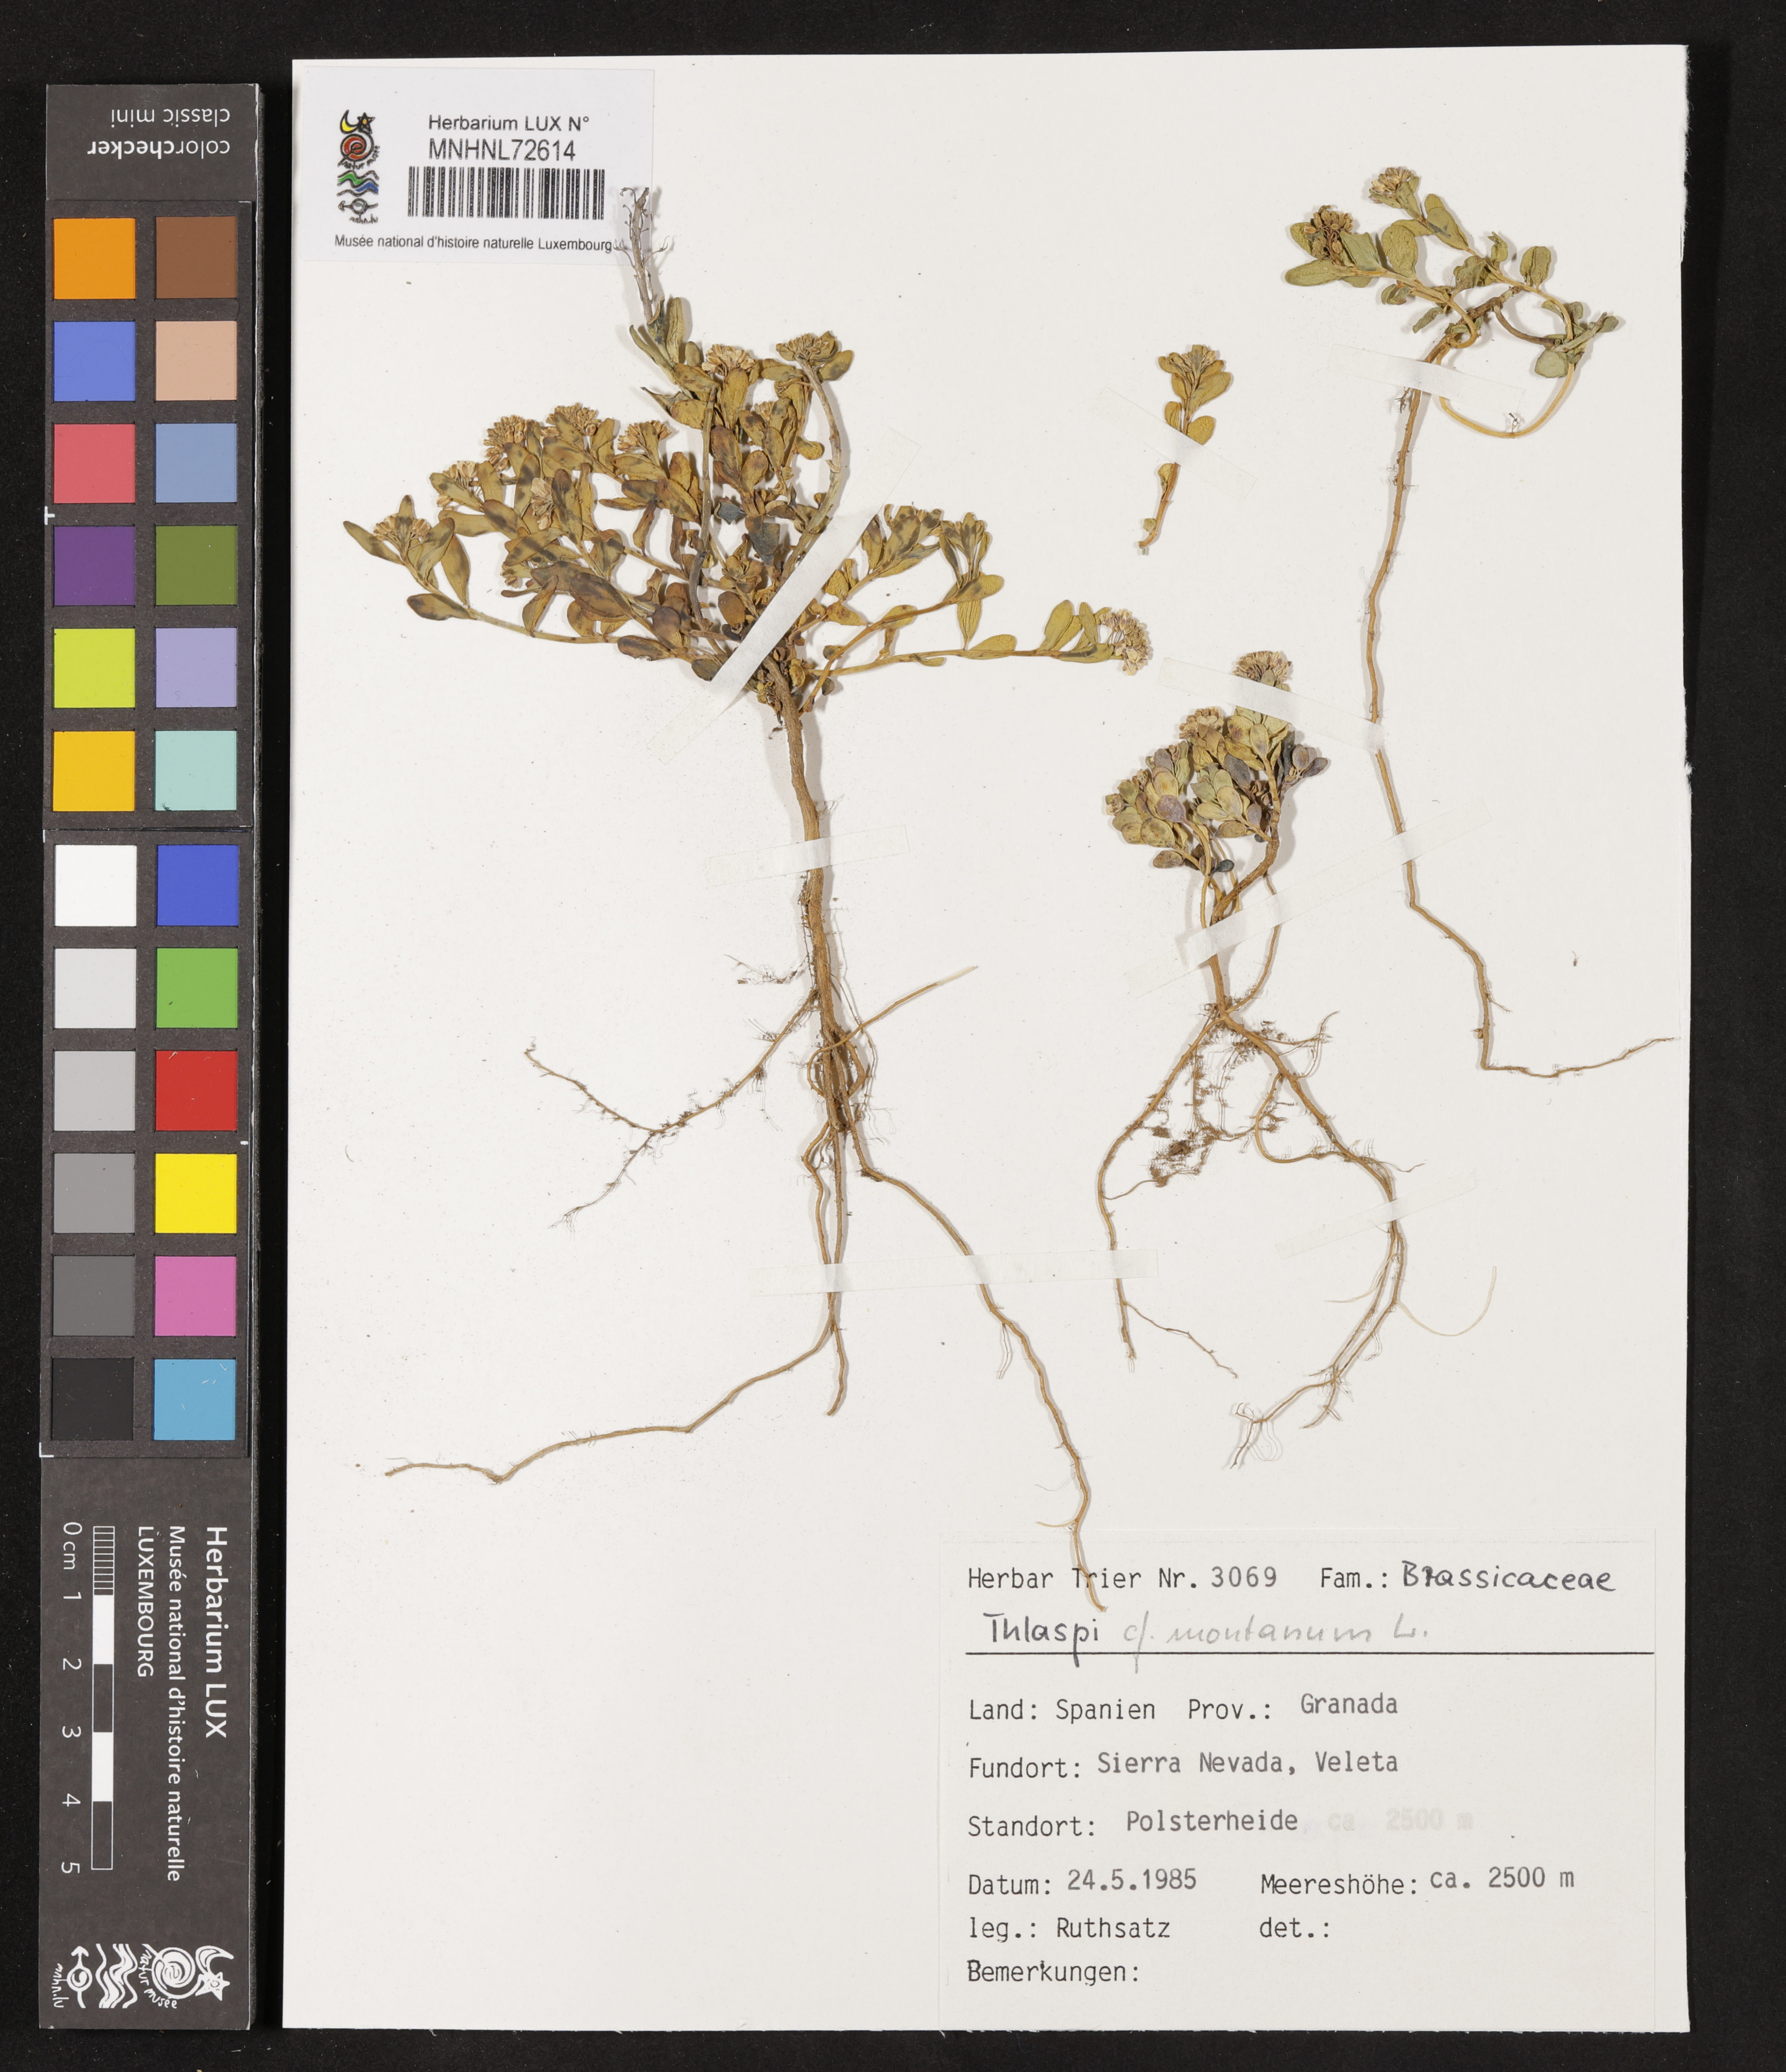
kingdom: Plantae
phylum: Tracheophyta
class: Magnoliopsida
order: Brassicales
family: Brassicaceae
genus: Noccaea
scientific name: Noccaea montana
